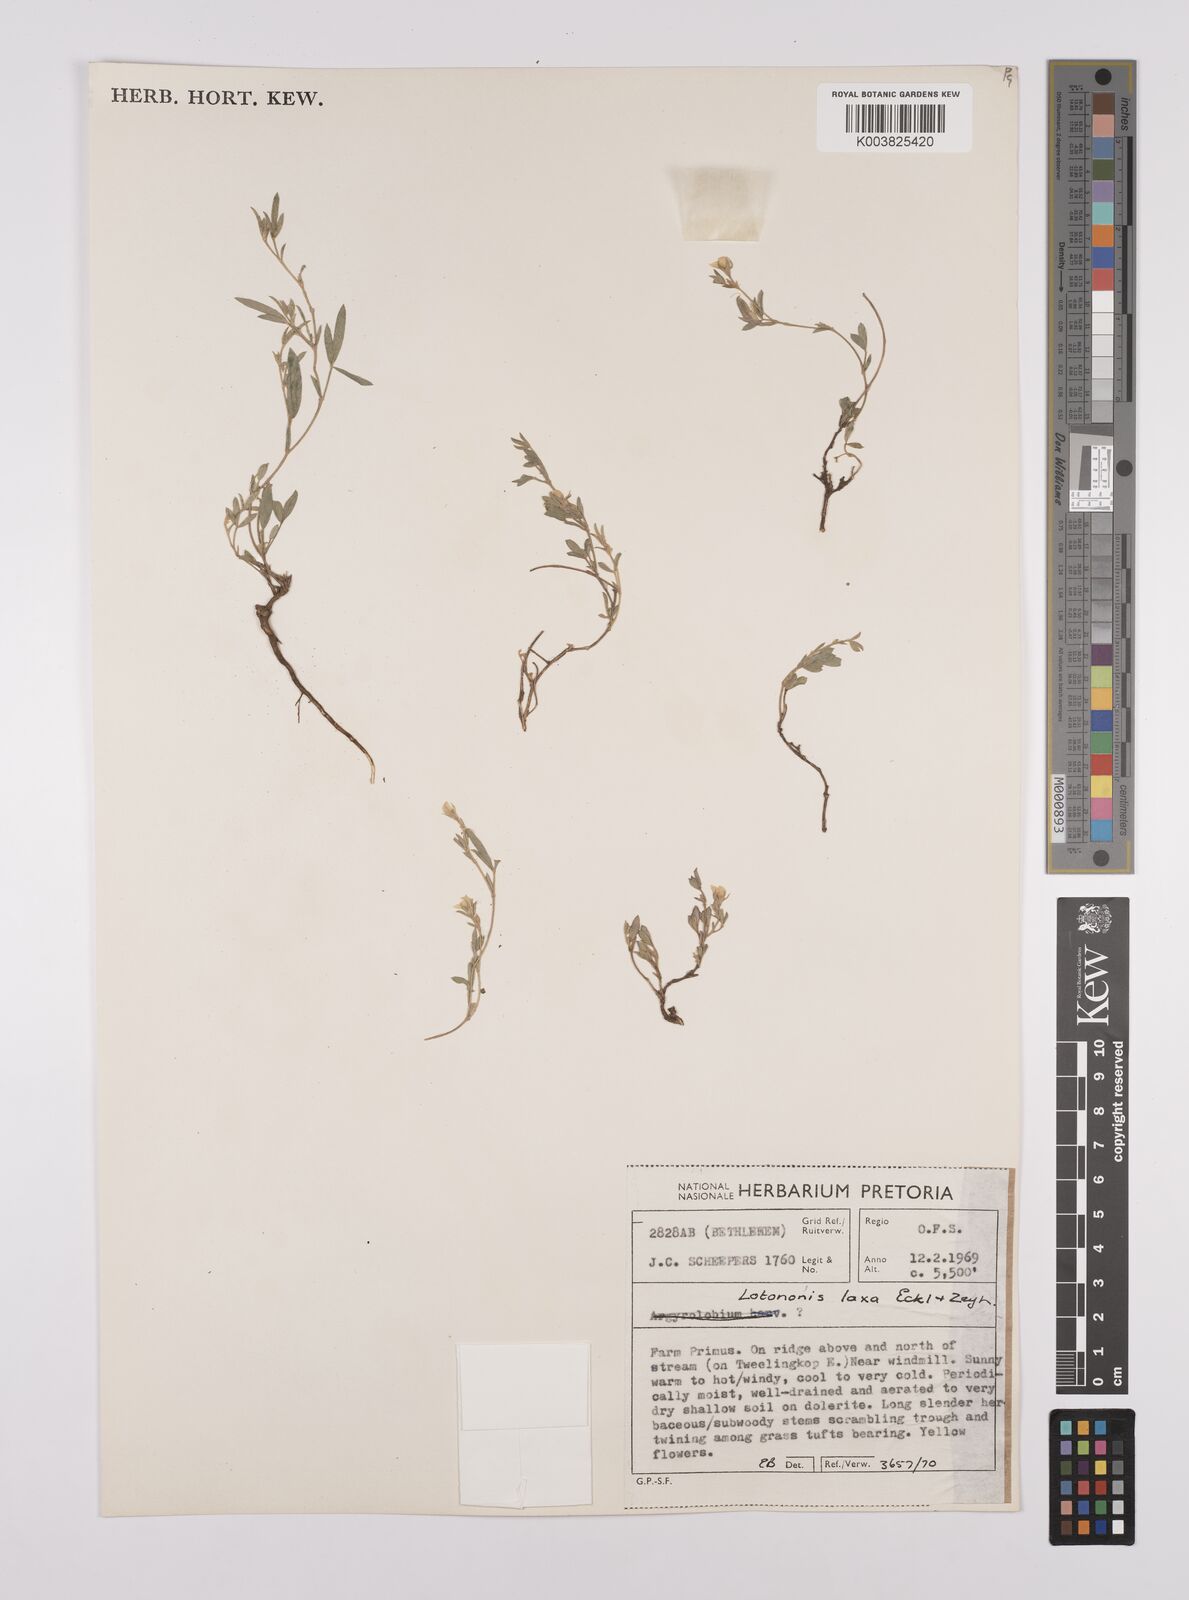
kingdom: Plantae
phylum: Tracheophyta
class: Magnoliopsida
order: Fabales
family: Fabaceae
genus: Lotononis
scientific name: Lotononis laxa
